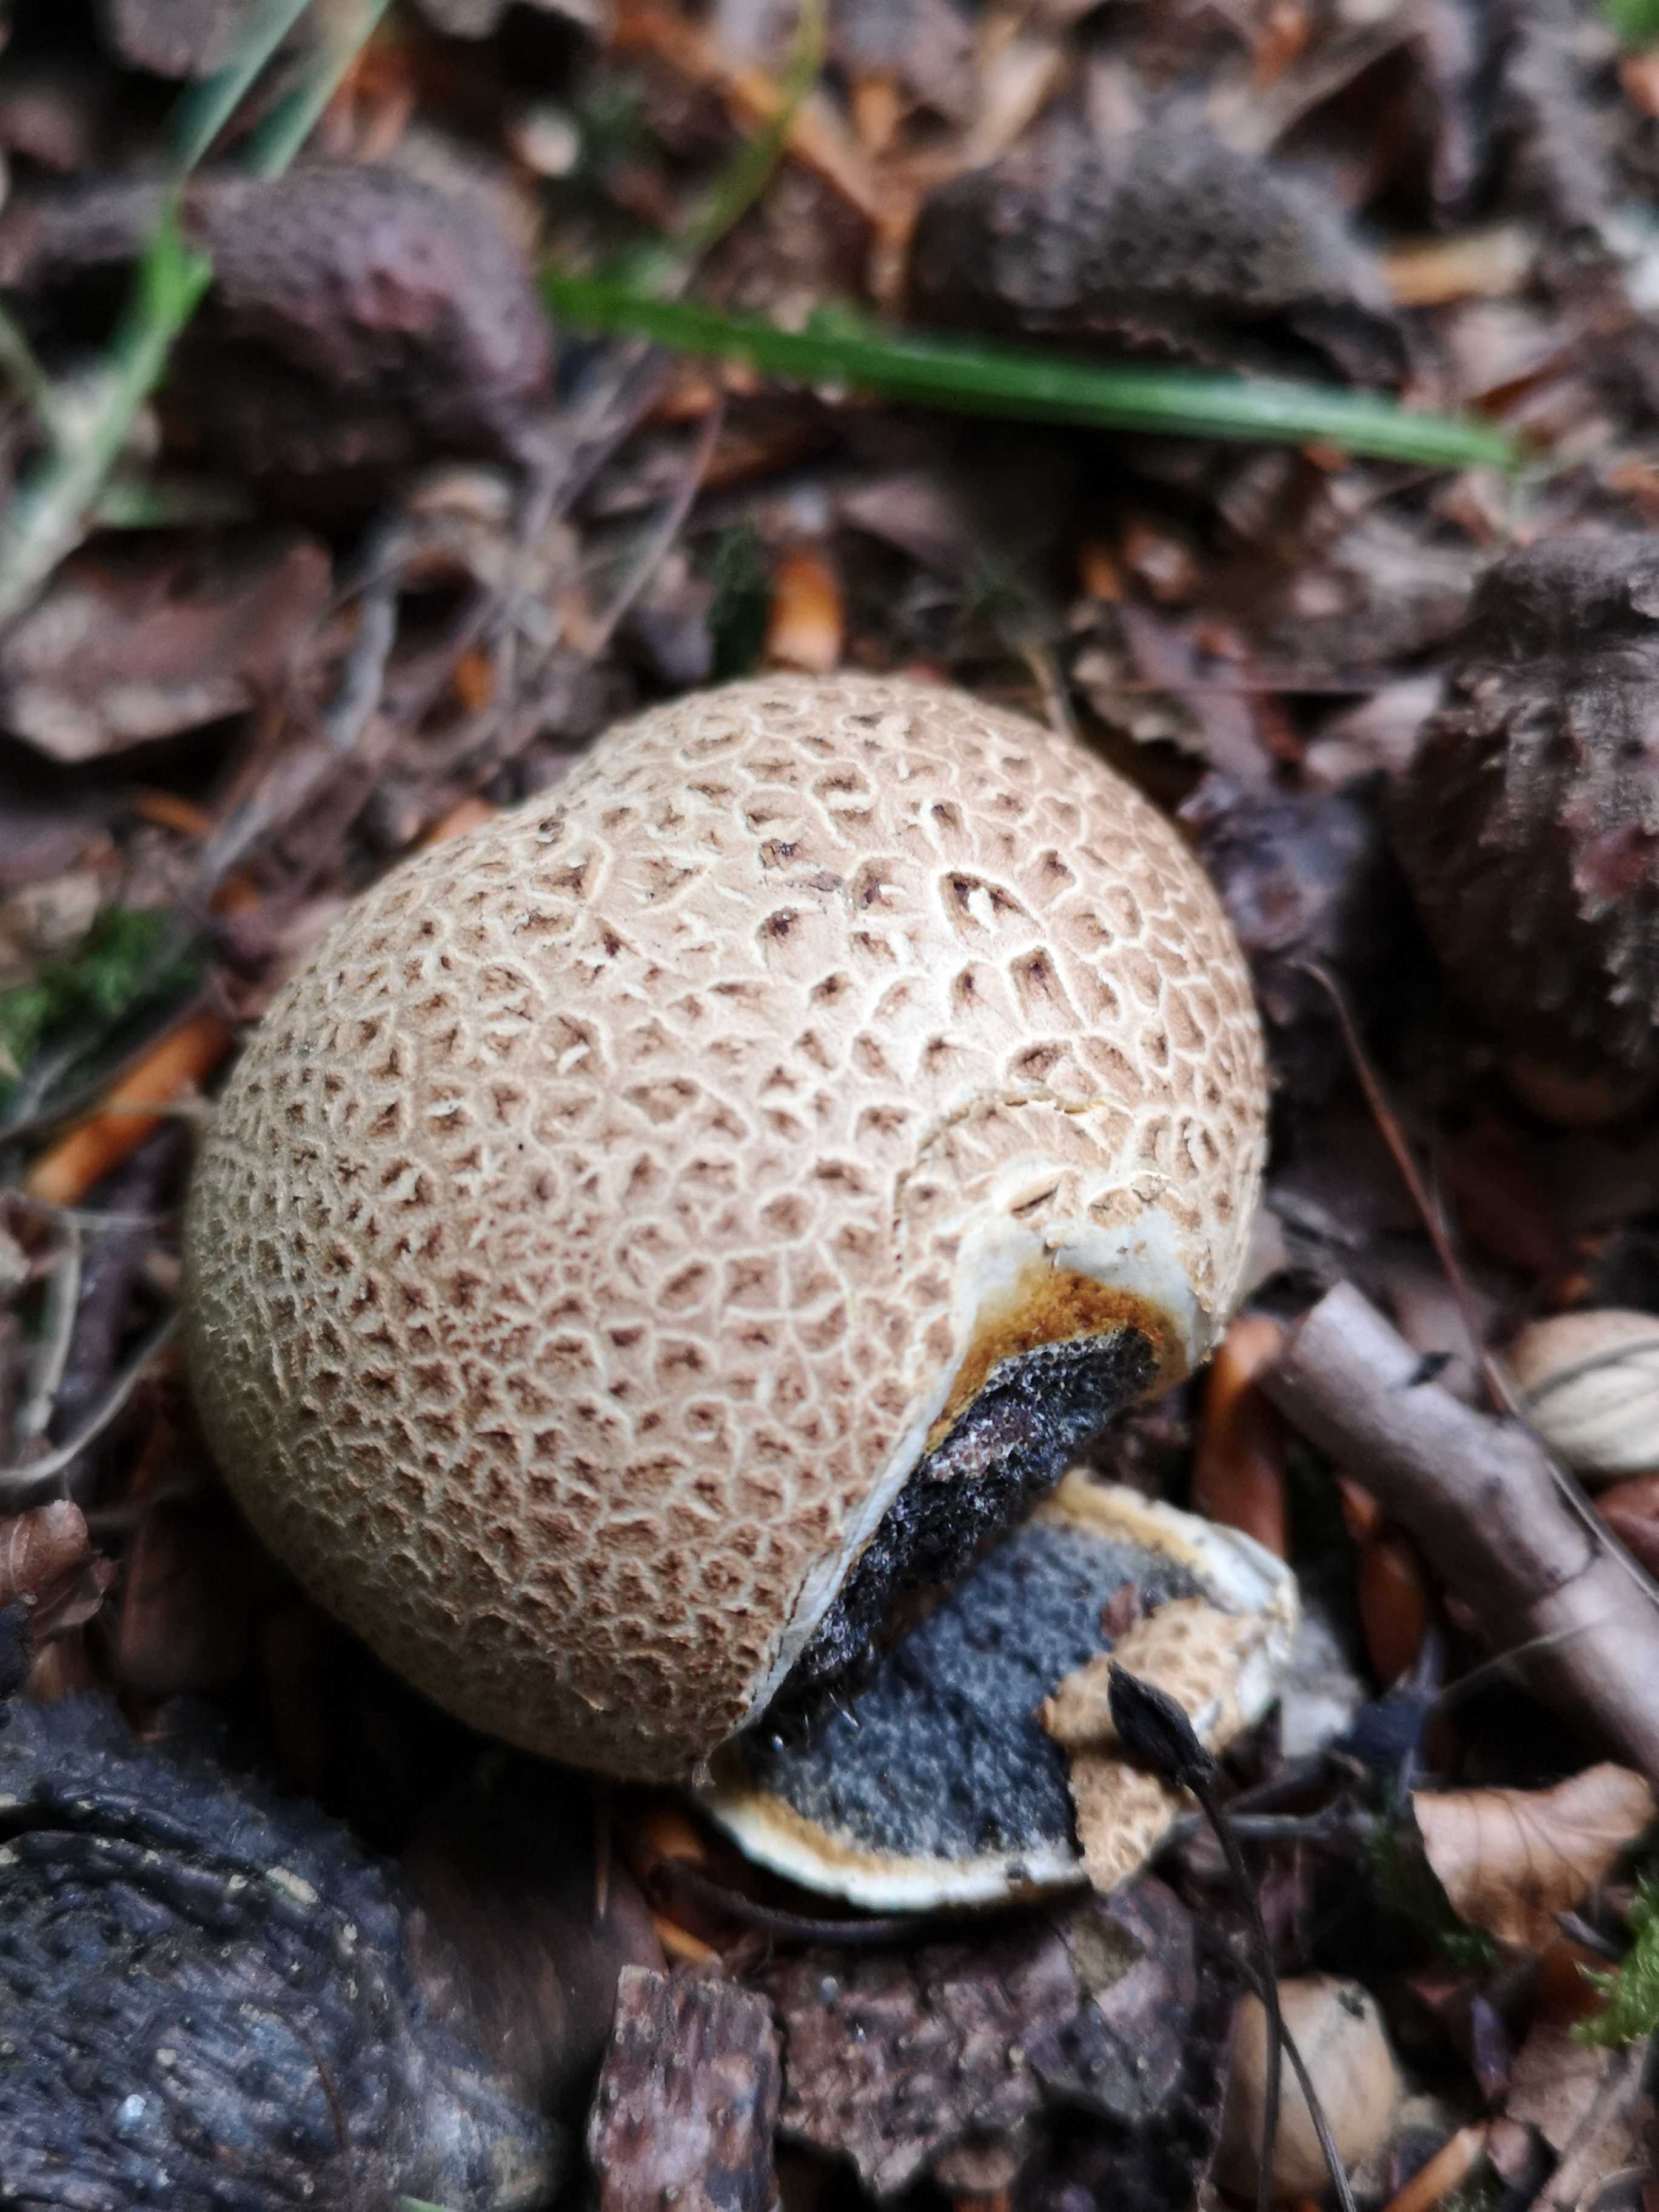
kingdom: Fungi
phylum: Basidiomycota
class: Agaricomycetes
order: Boletales
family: Sclerodermataceae
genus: Scleroderma
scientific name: Scleroderma citrinum
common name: almindelig bruskbold
